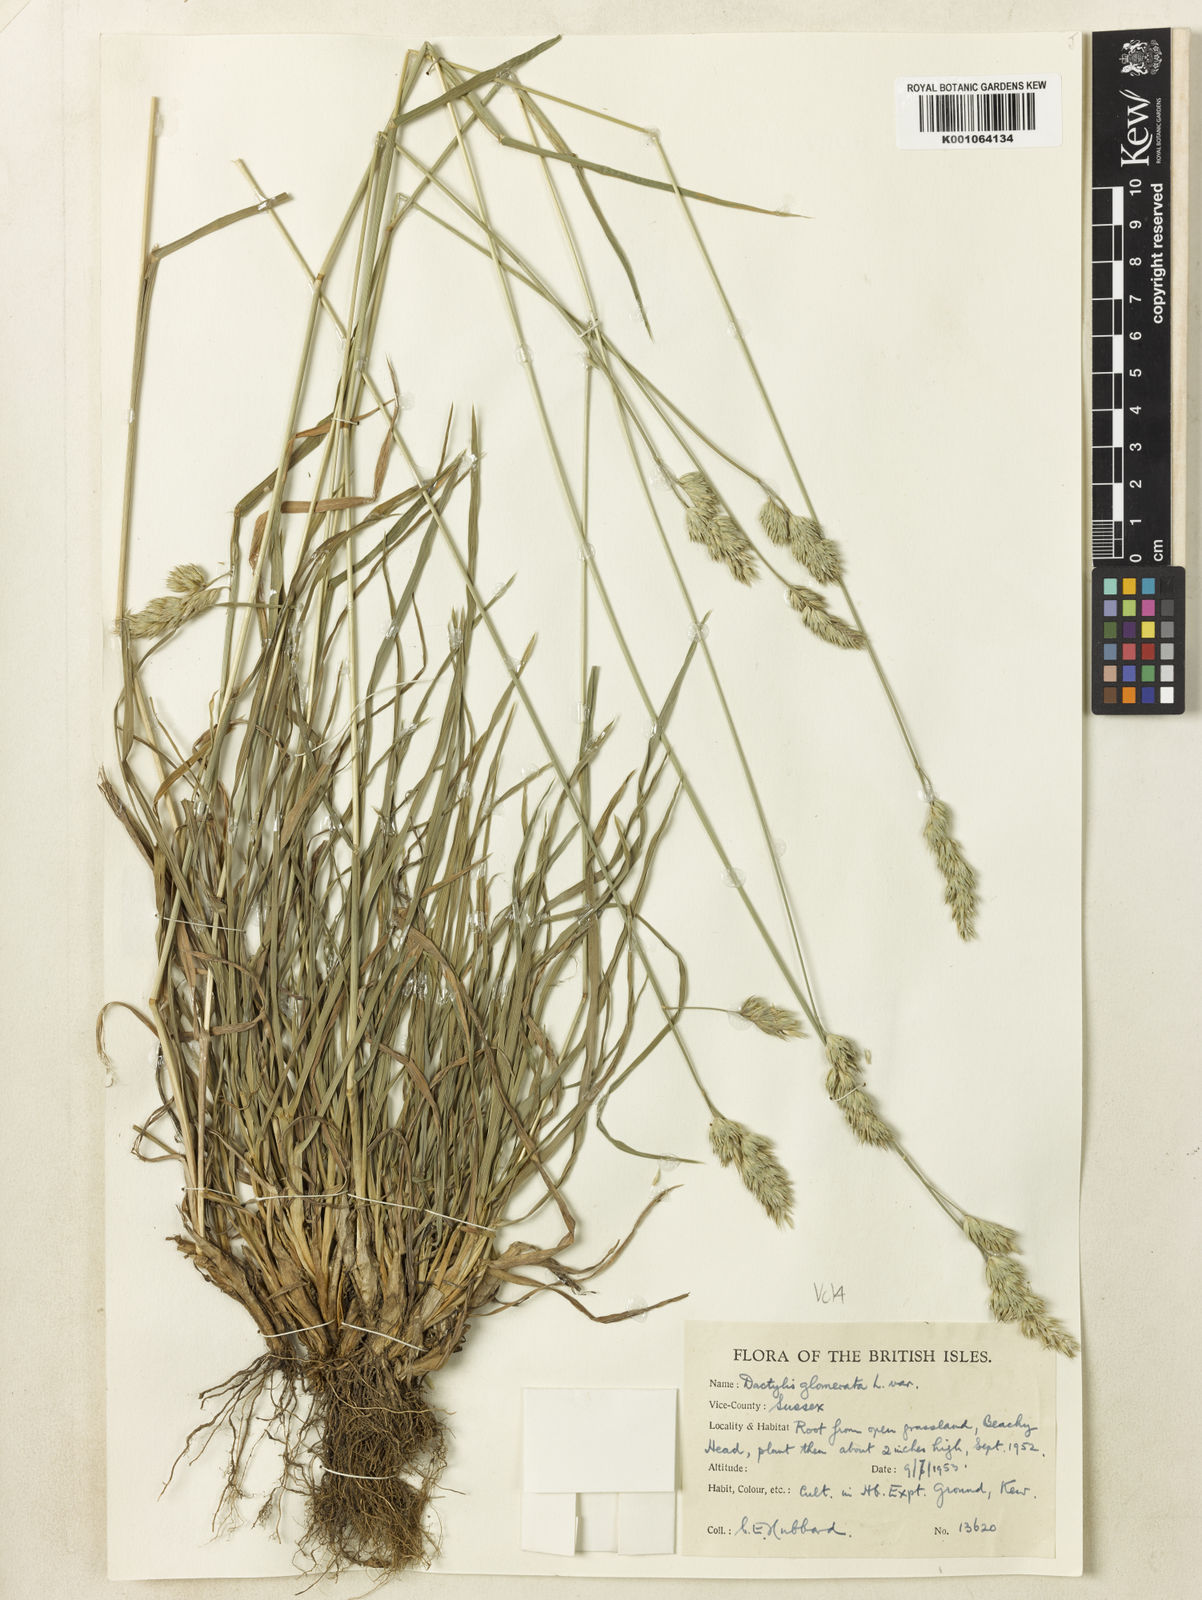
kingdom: Plantae
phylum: Tracheophyta
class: Liliopsida
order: Poales
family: Poaceae
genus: Dactylis
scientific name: Dactylis glomerata
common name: Orchardgrass
